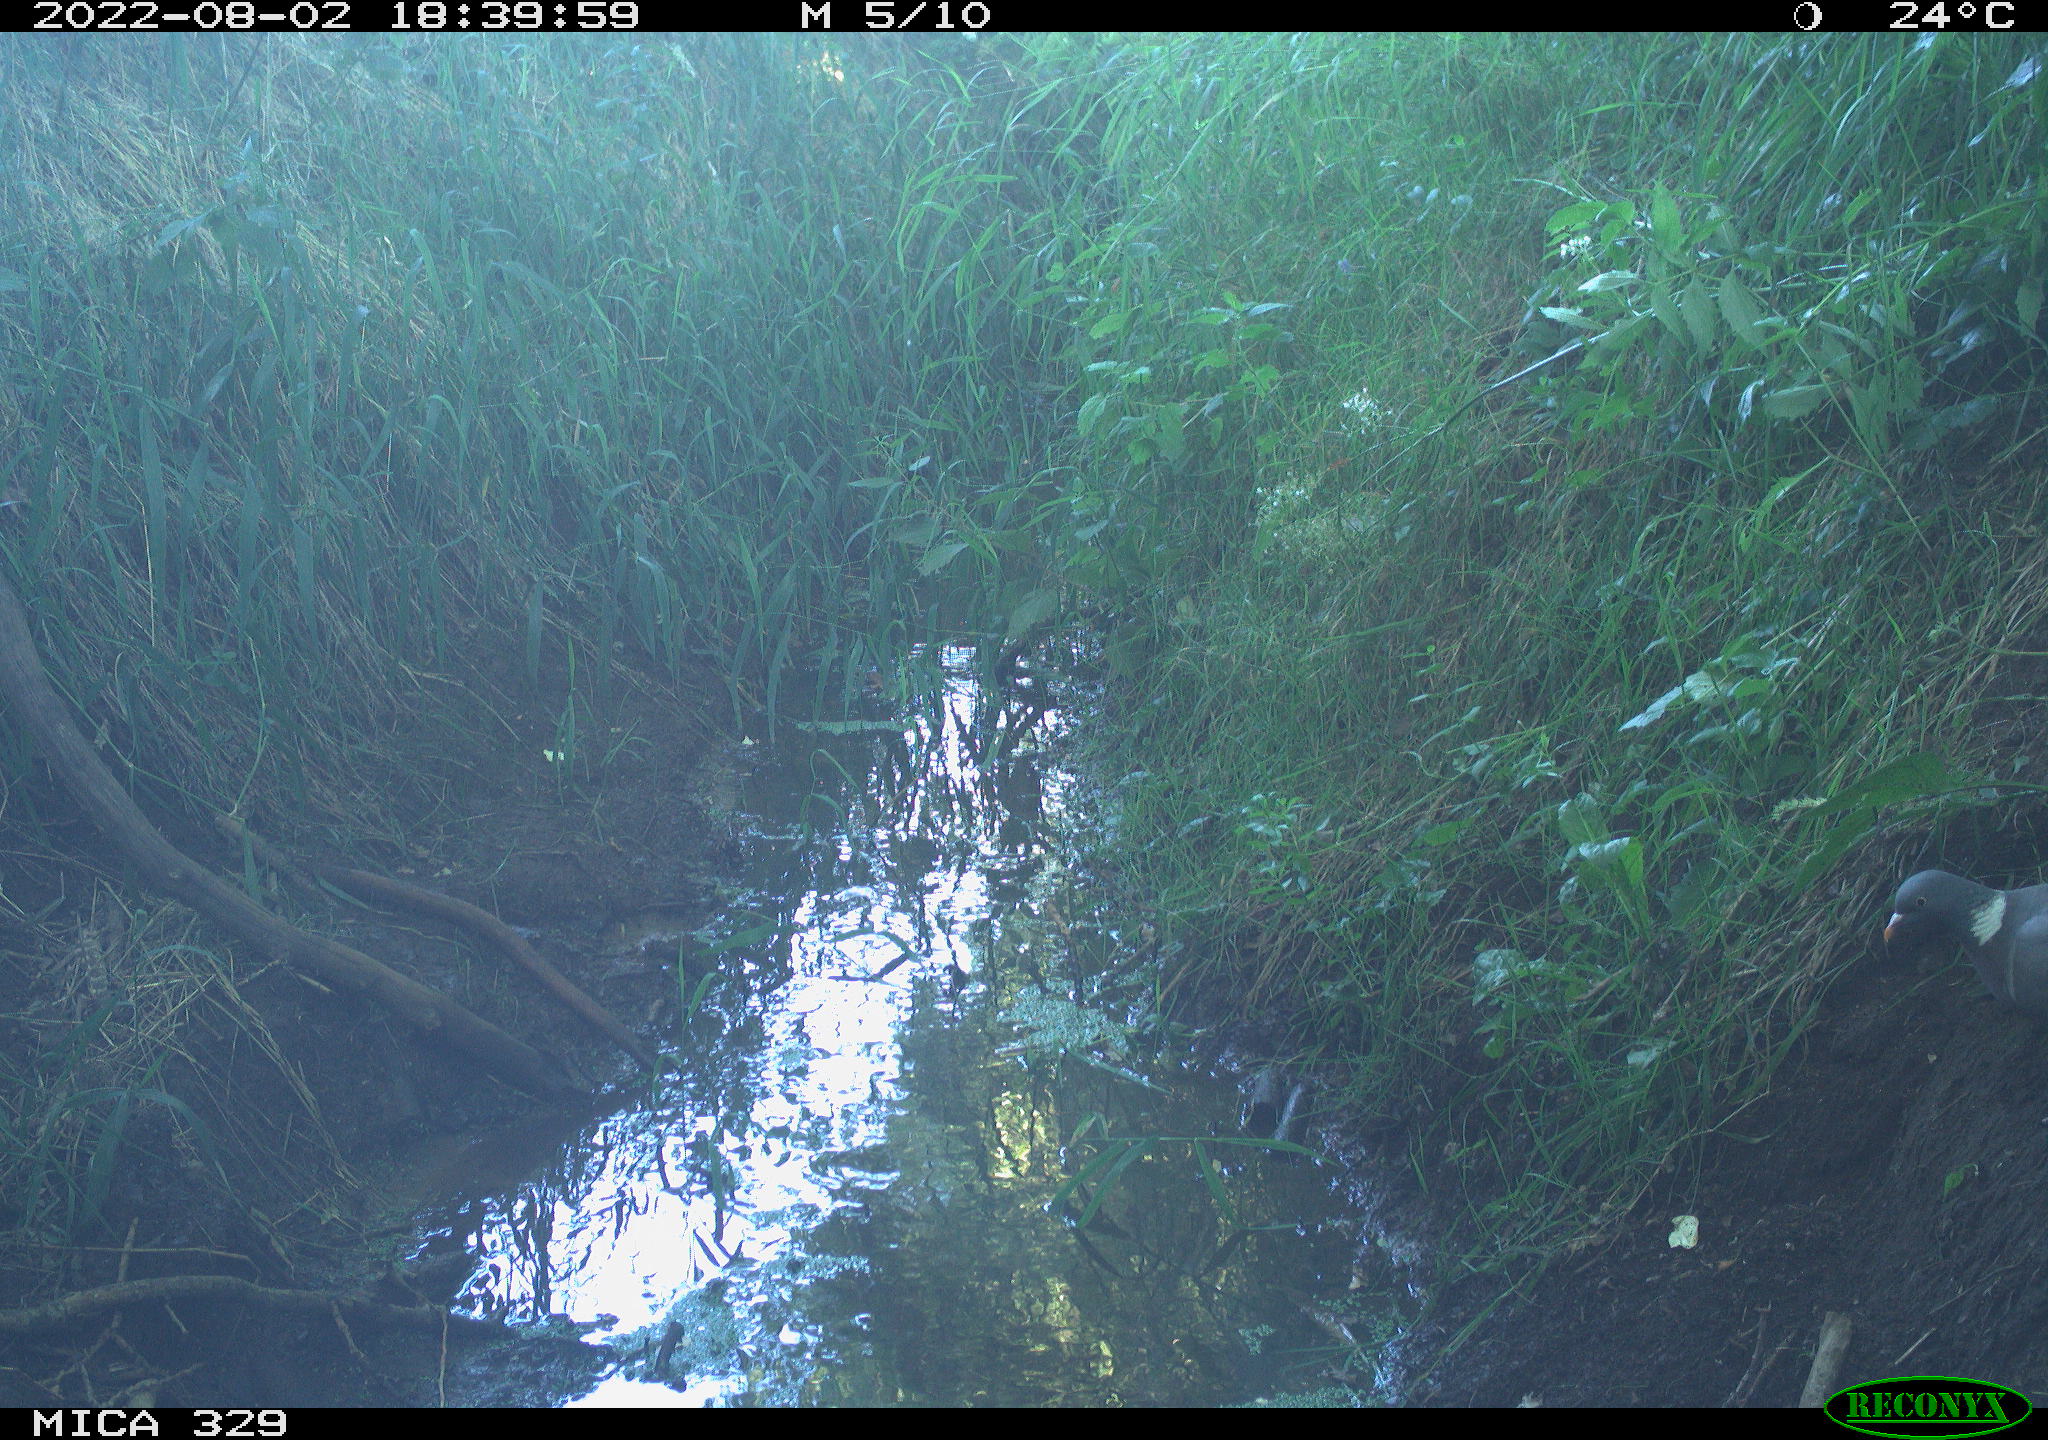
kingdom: Animalia
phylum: Chordata
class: Aves
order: Columbiformes
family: Columbidae
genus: Columba
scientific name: Columba palumbus
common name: Common wood pigeon
